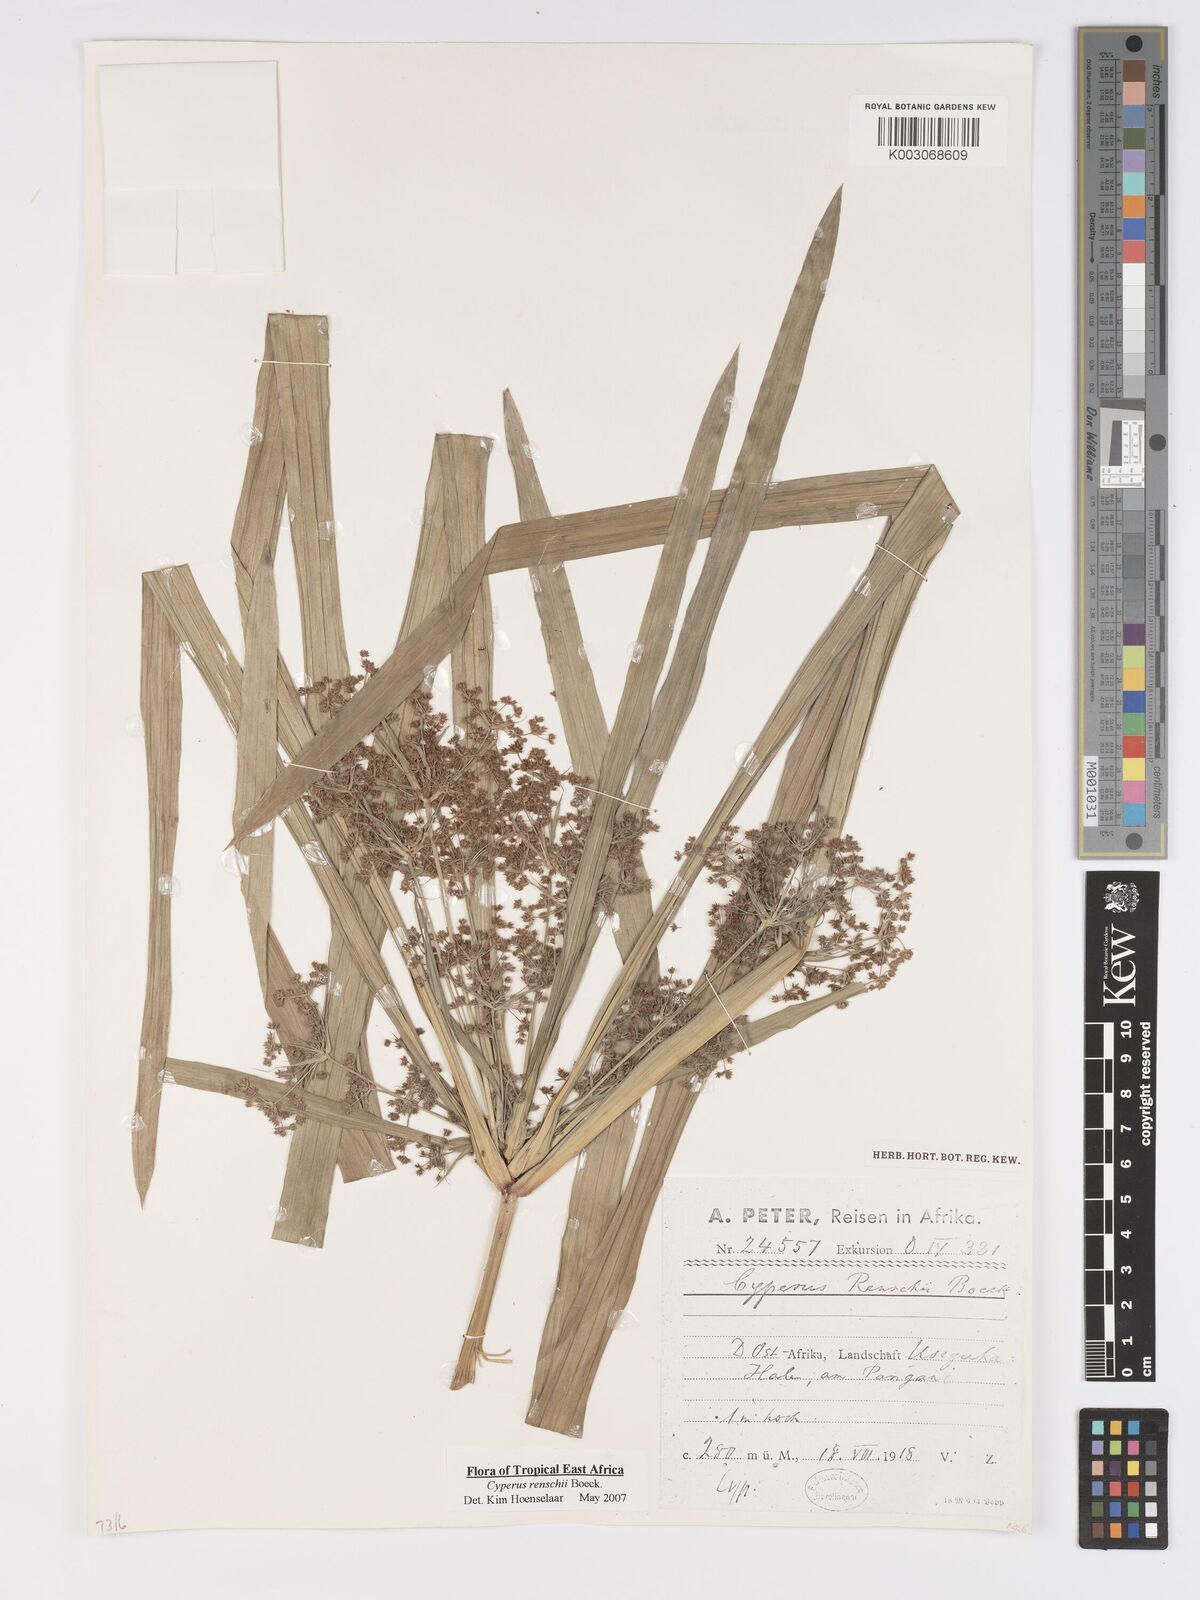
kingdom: Plantae
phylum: Tracheophyta
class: Liliopsida
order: Poales
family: Cyperaceae
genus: Cyperus
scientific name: Cyperus renschii
